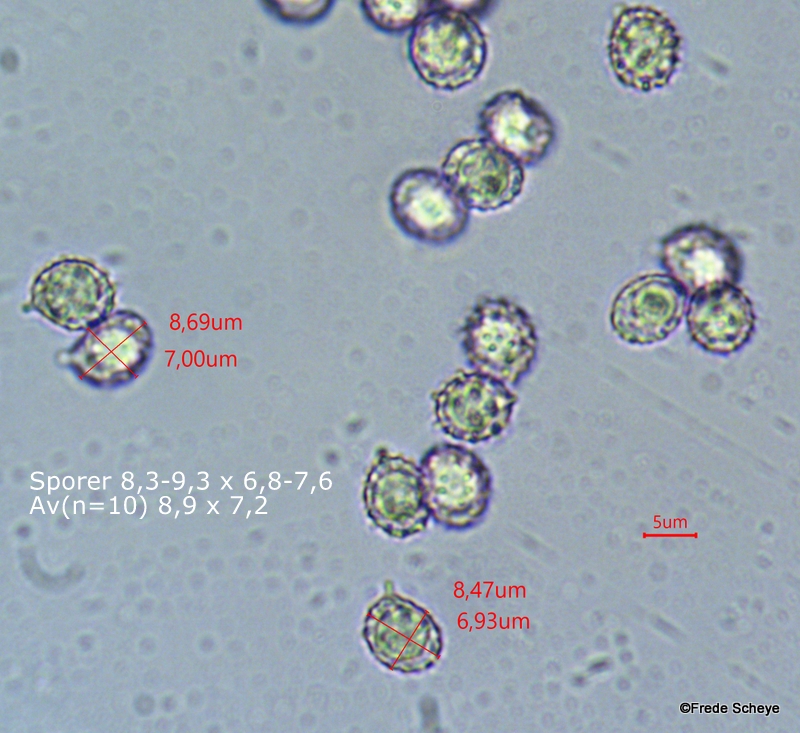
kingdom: Fungi
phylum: Basidiomycota
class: Agaricomycetes
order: Russulales
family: Russulaceae
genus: Russula
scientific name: Russula
